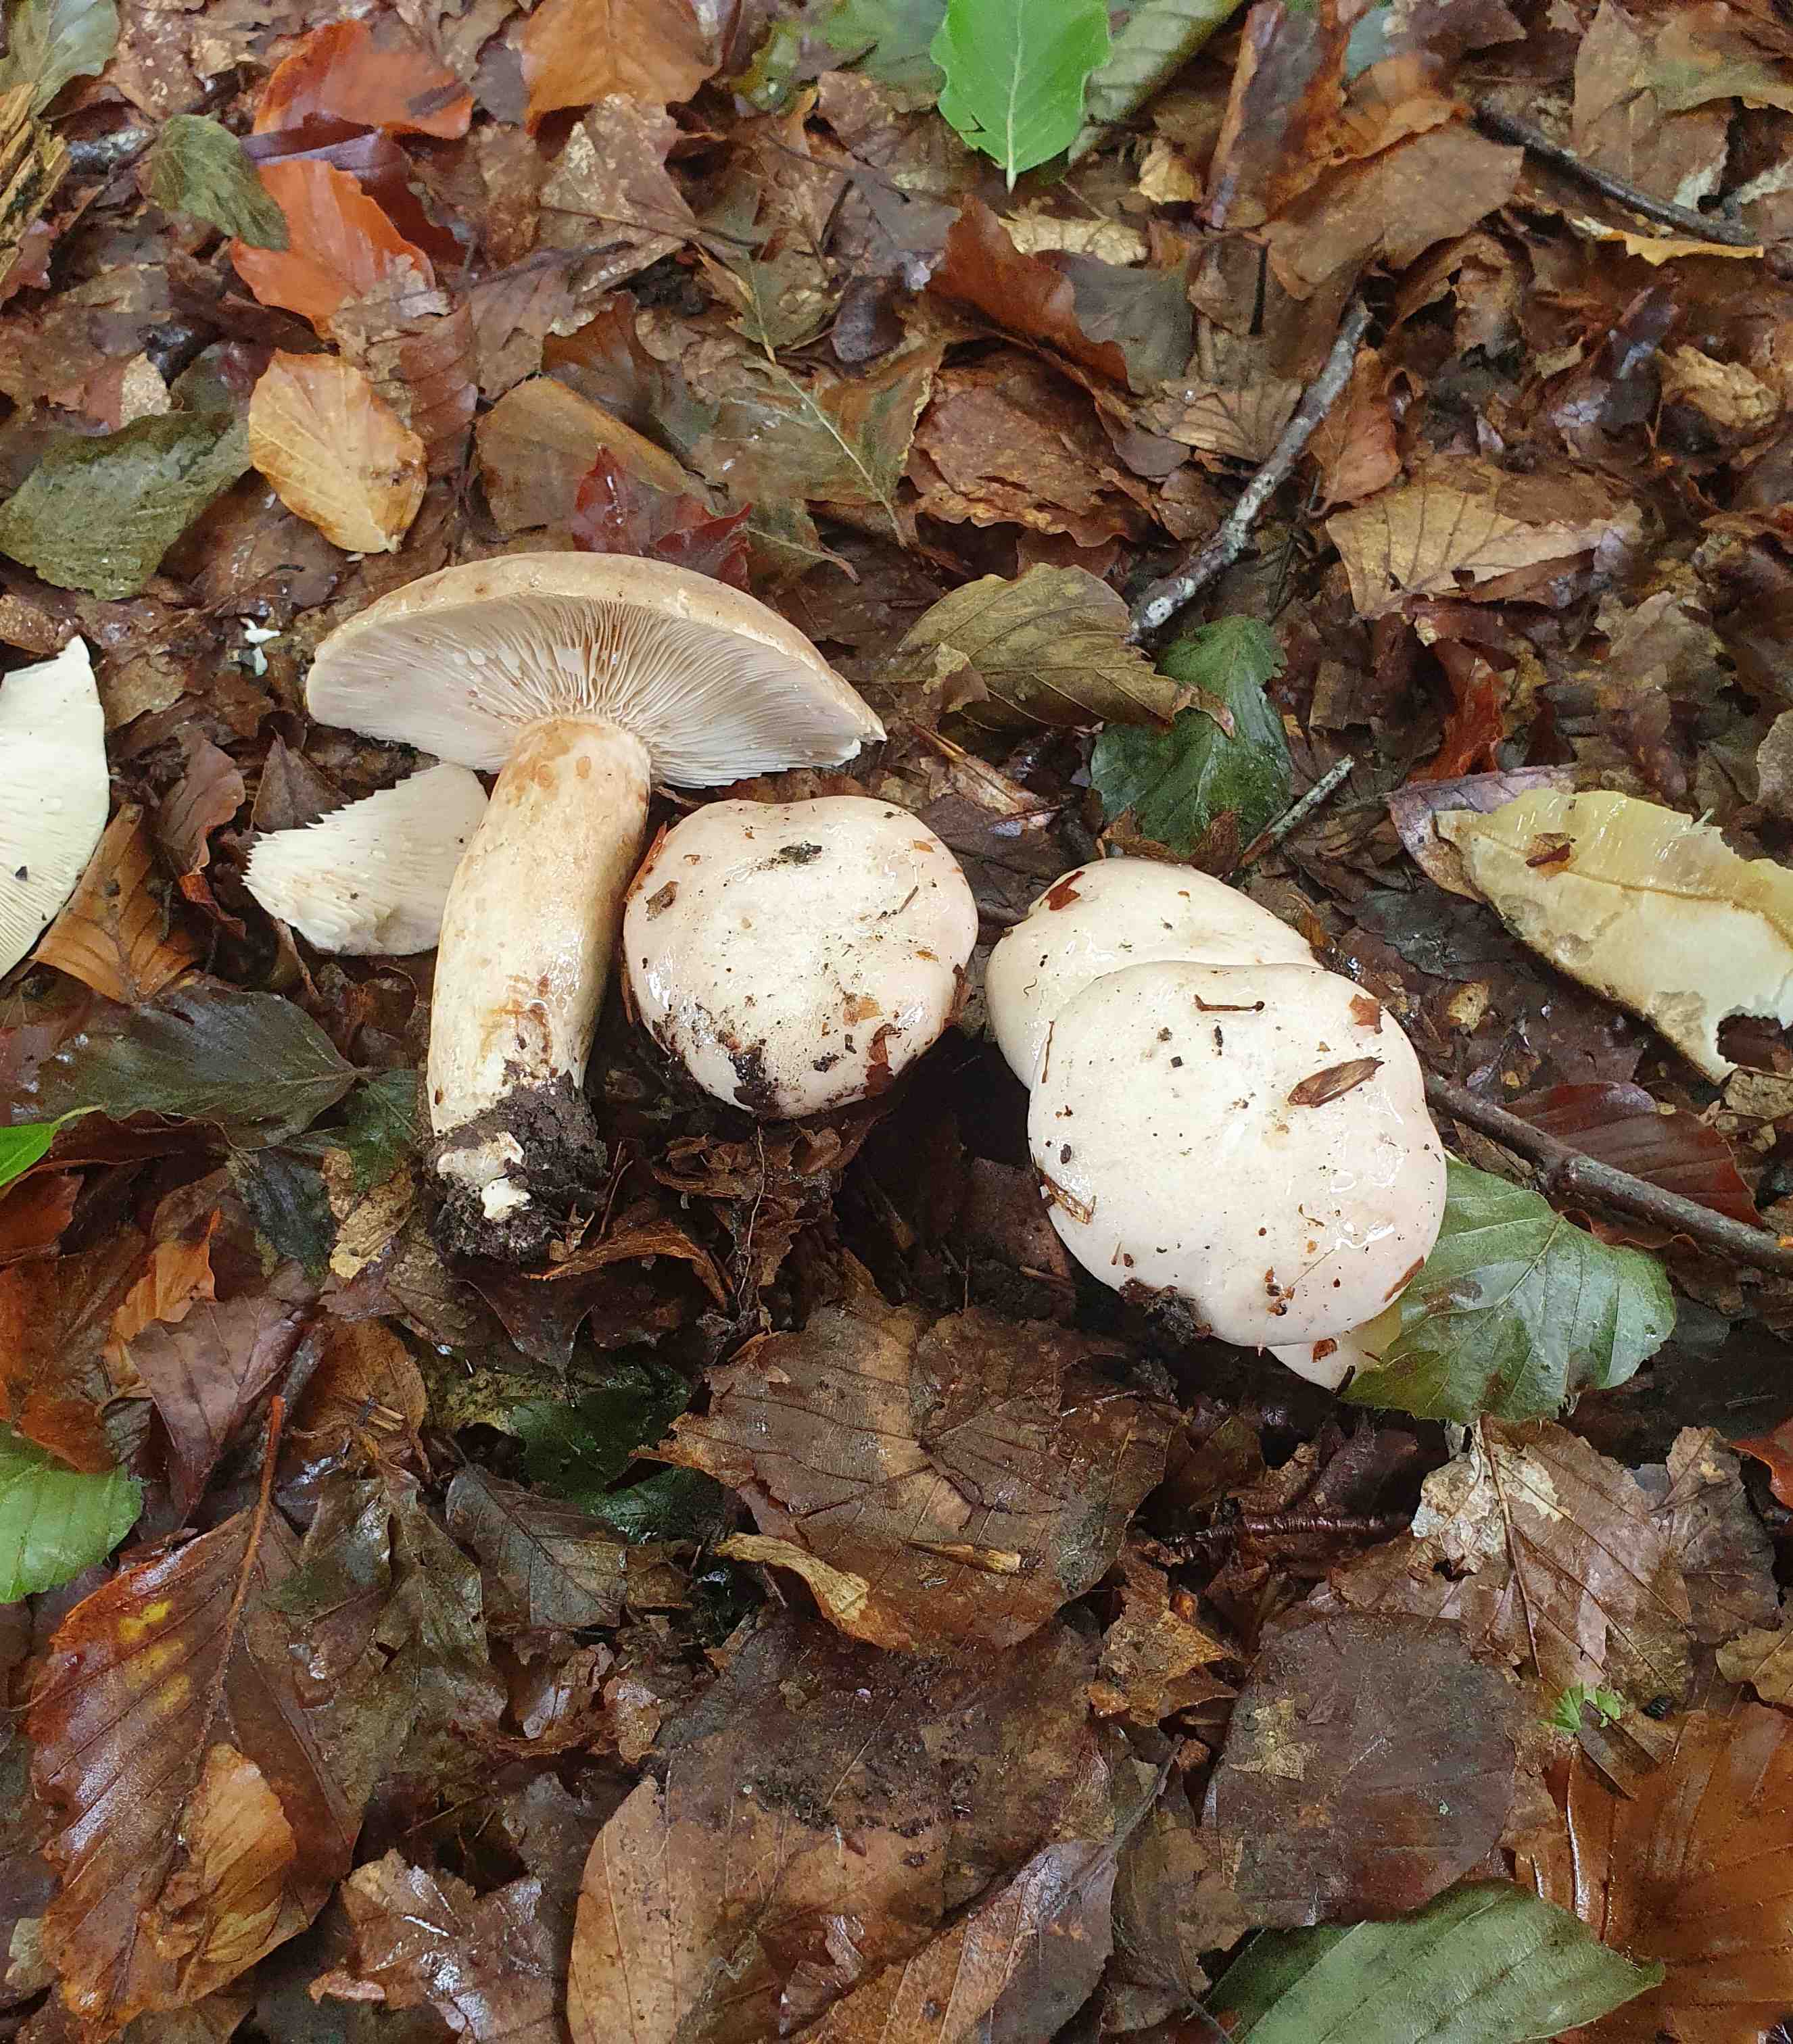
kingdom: Fungi
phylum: Basidiomycota
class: Agaricomycetes
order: Russulales
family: Russulaceae
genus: Lactarius
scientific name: Lactarius pallidus
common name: bleg mælkehat
